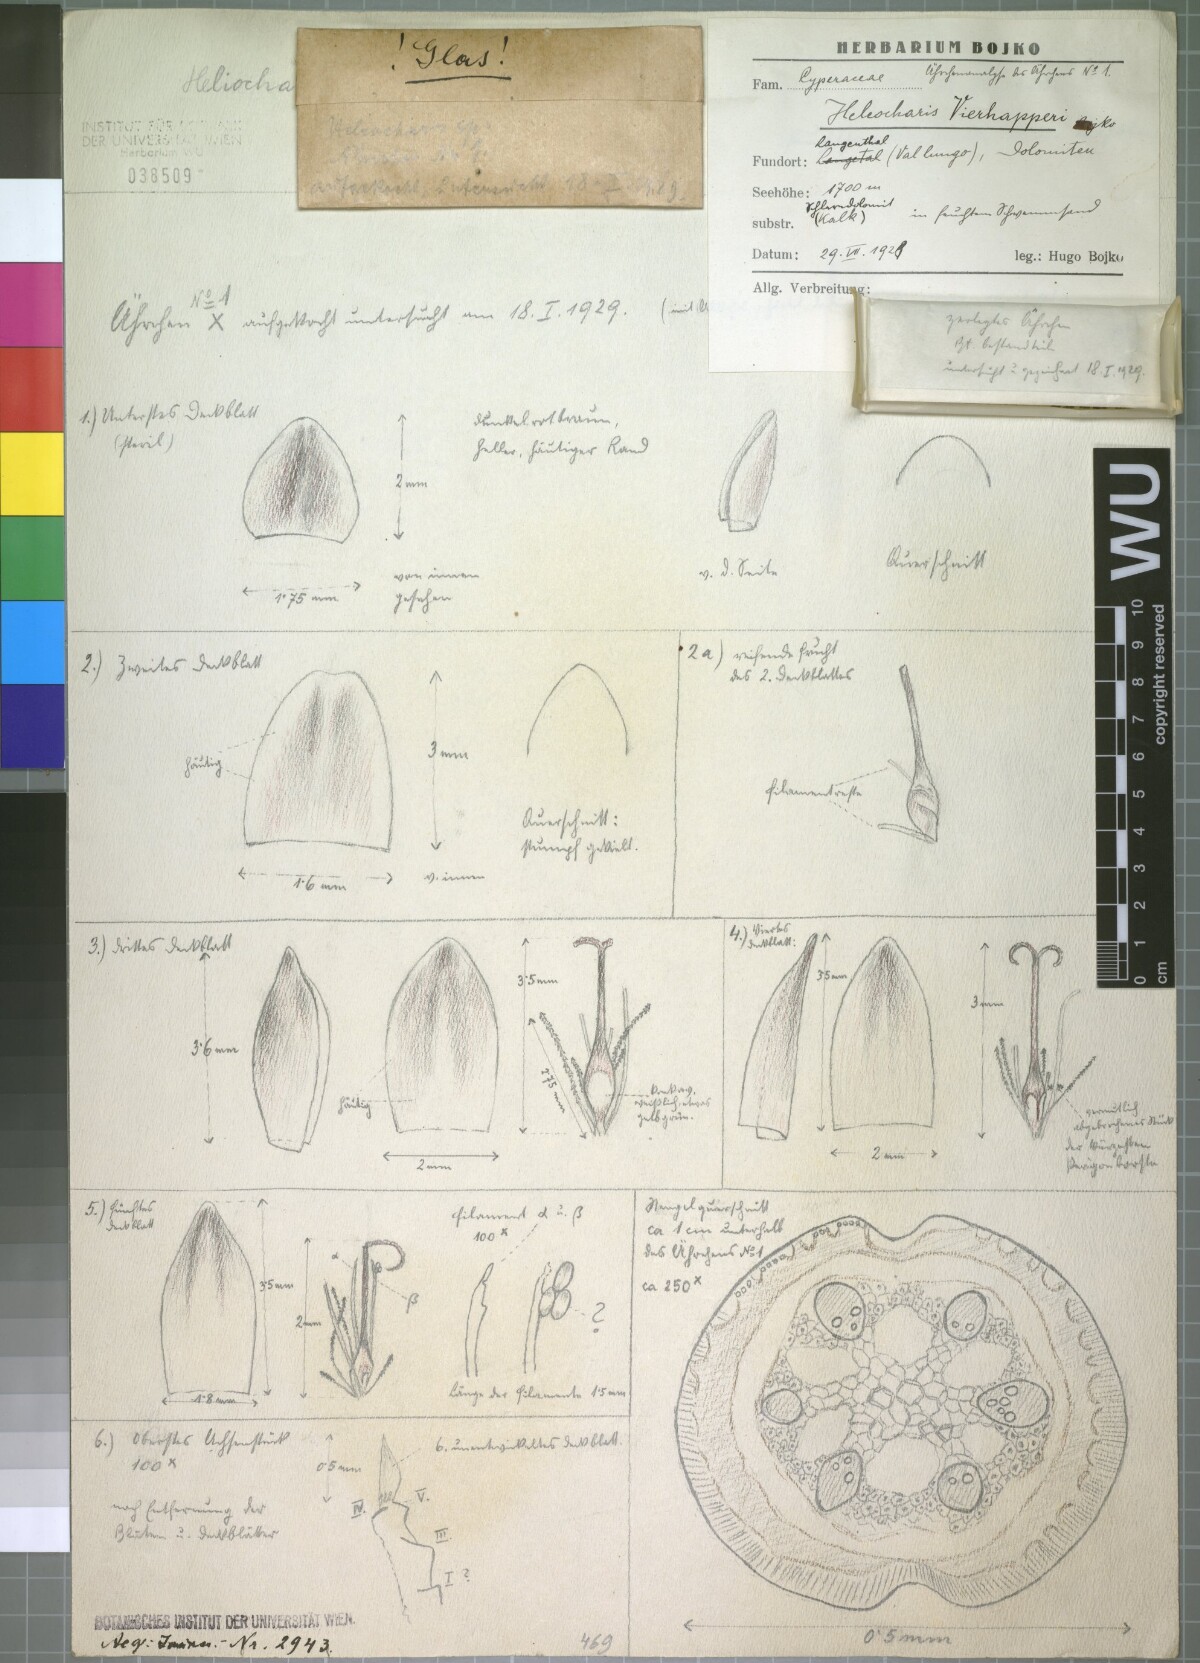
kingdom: Plantae
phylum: Tracheophyta
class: Liliopsida
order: Poales
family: Cyperaceae
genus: Eleocharis
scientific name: Eleocharis quinqueflora
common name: Few-flowered spike-rush
